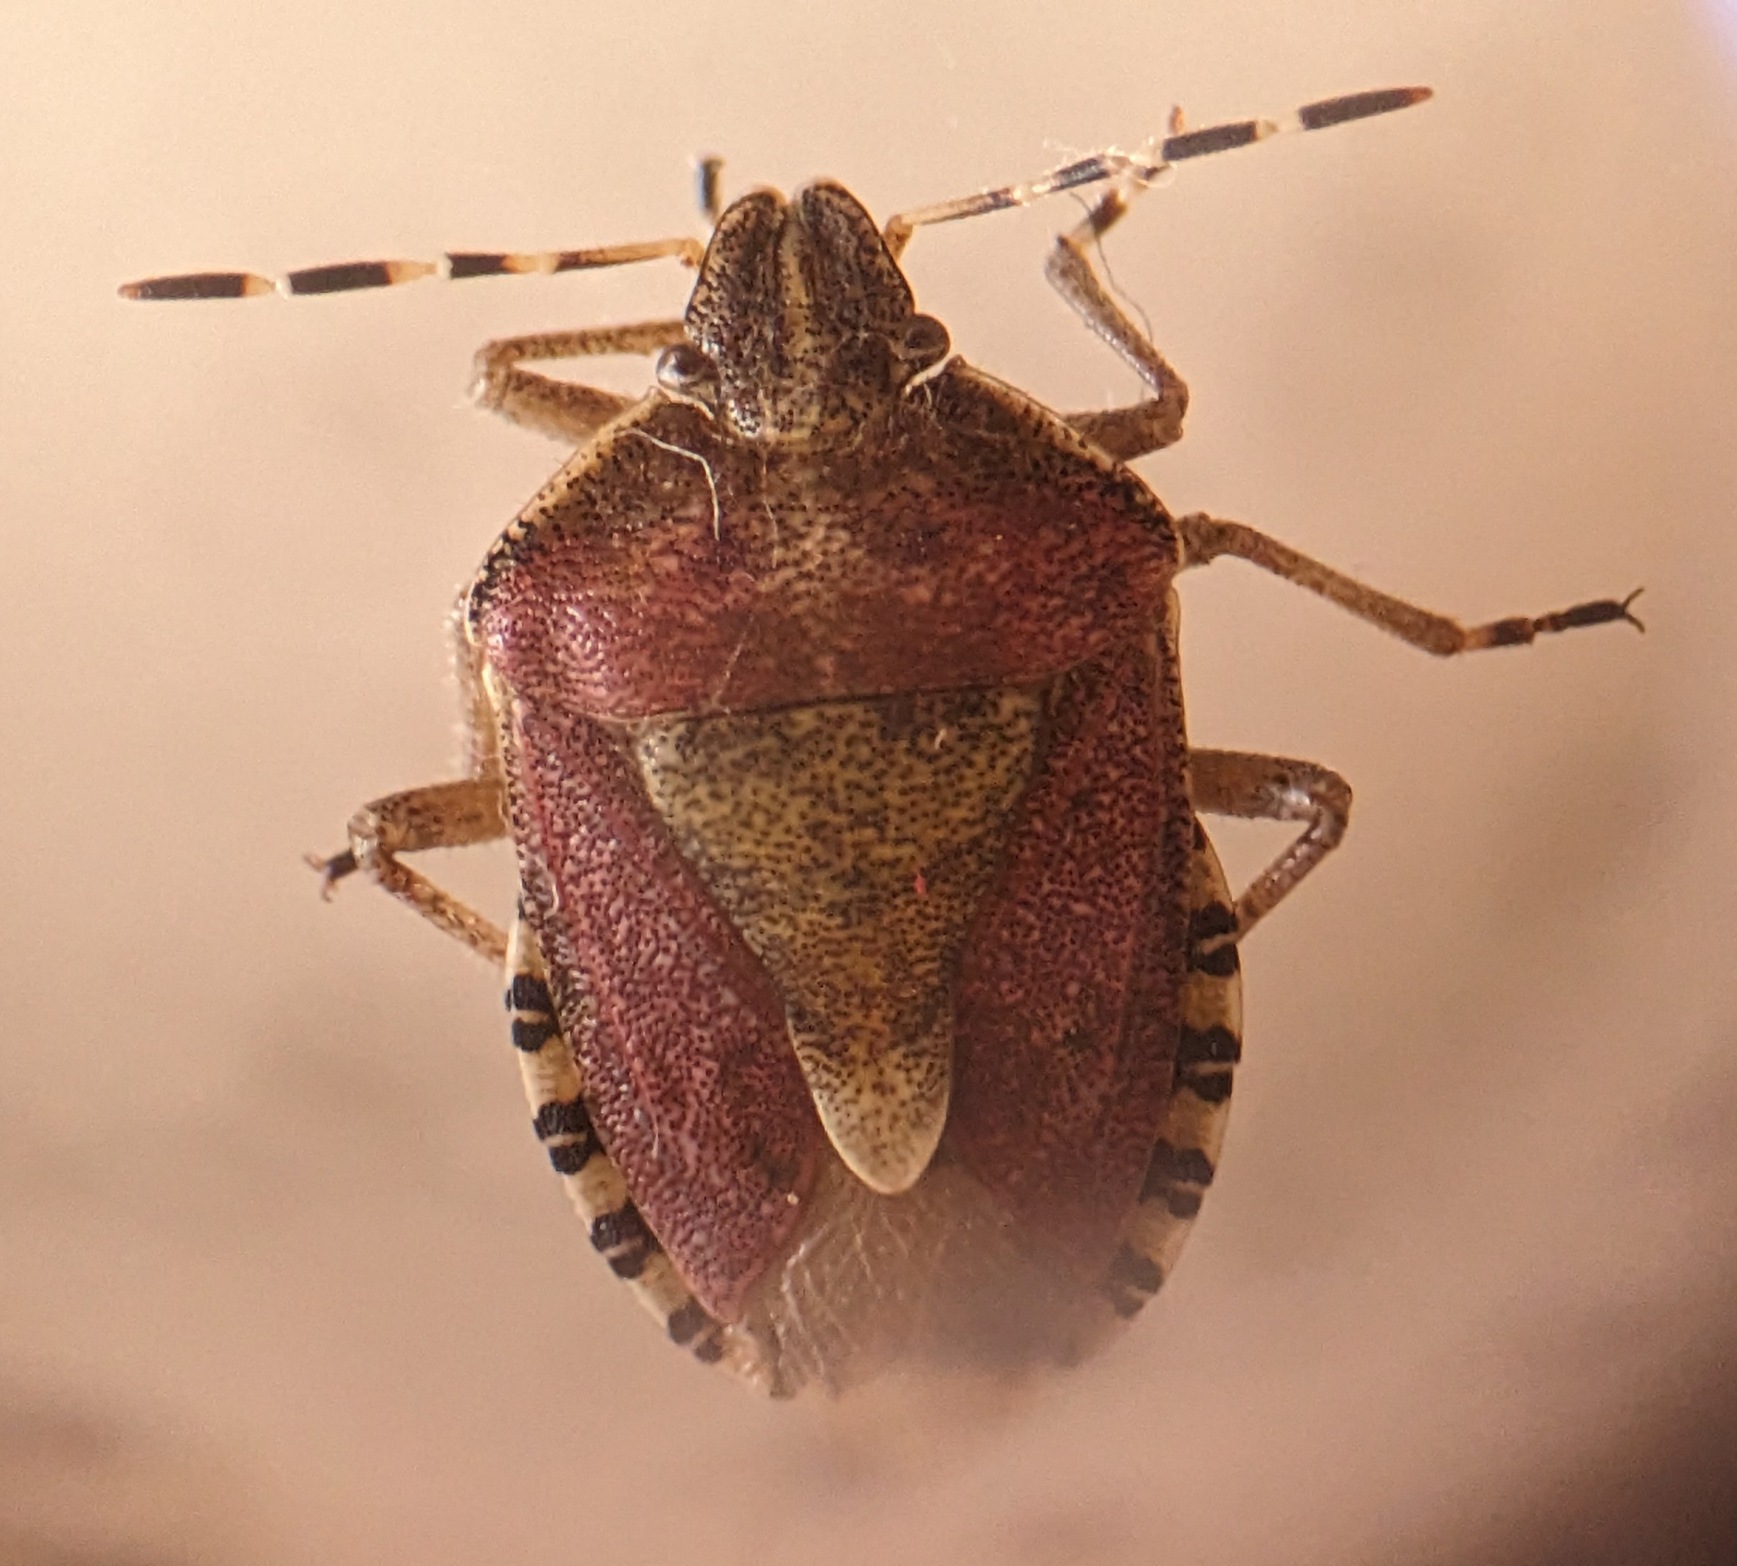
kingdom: Animalia
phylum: Arthropoda
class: Insecta
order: Hemiptera
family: Pentatomidae
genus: Dolycoris
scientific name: Dolycoris baccarum
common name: Almindelig bærtæge
